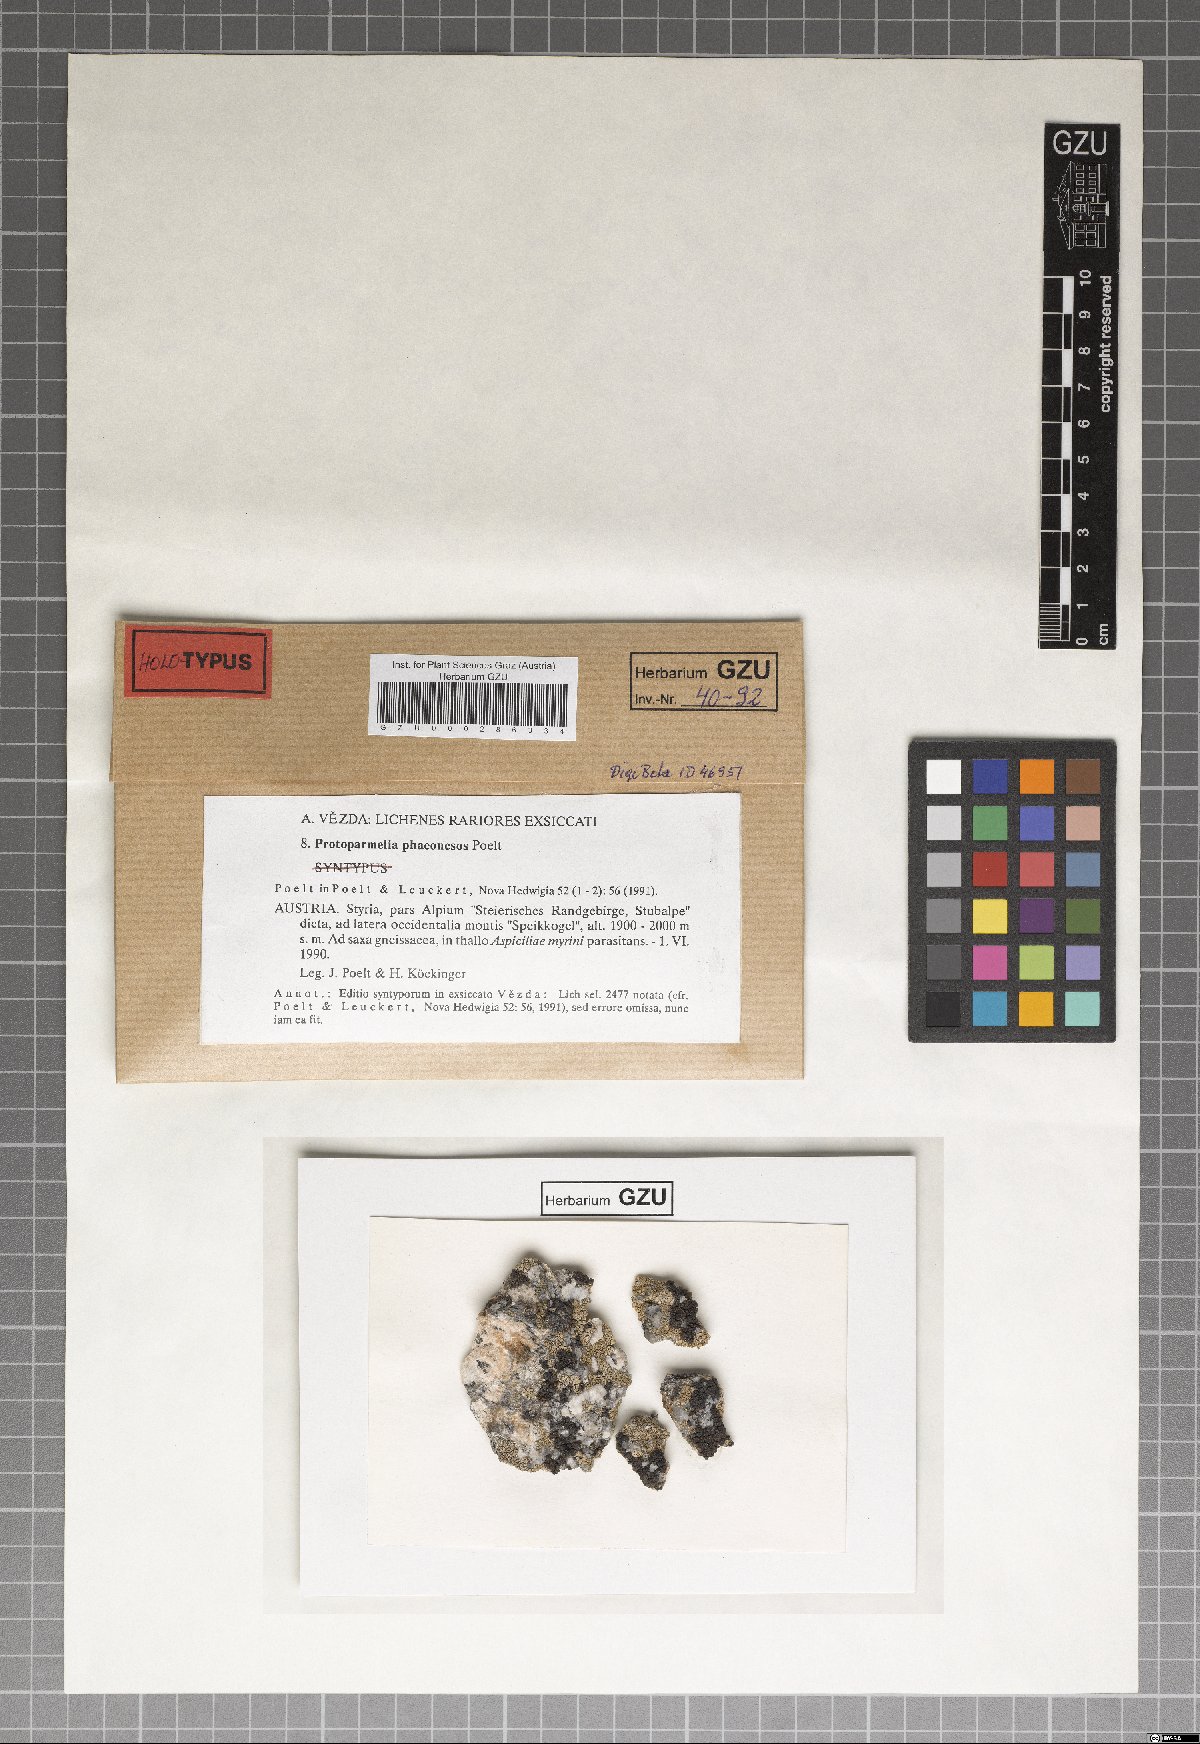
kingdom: Fungi
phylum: Ascomycota
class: Lecanoromycetes
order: Lecanorales
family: Parmeliaceae
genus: Protoparmelia
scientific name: Protoparmelia phaeonesos
